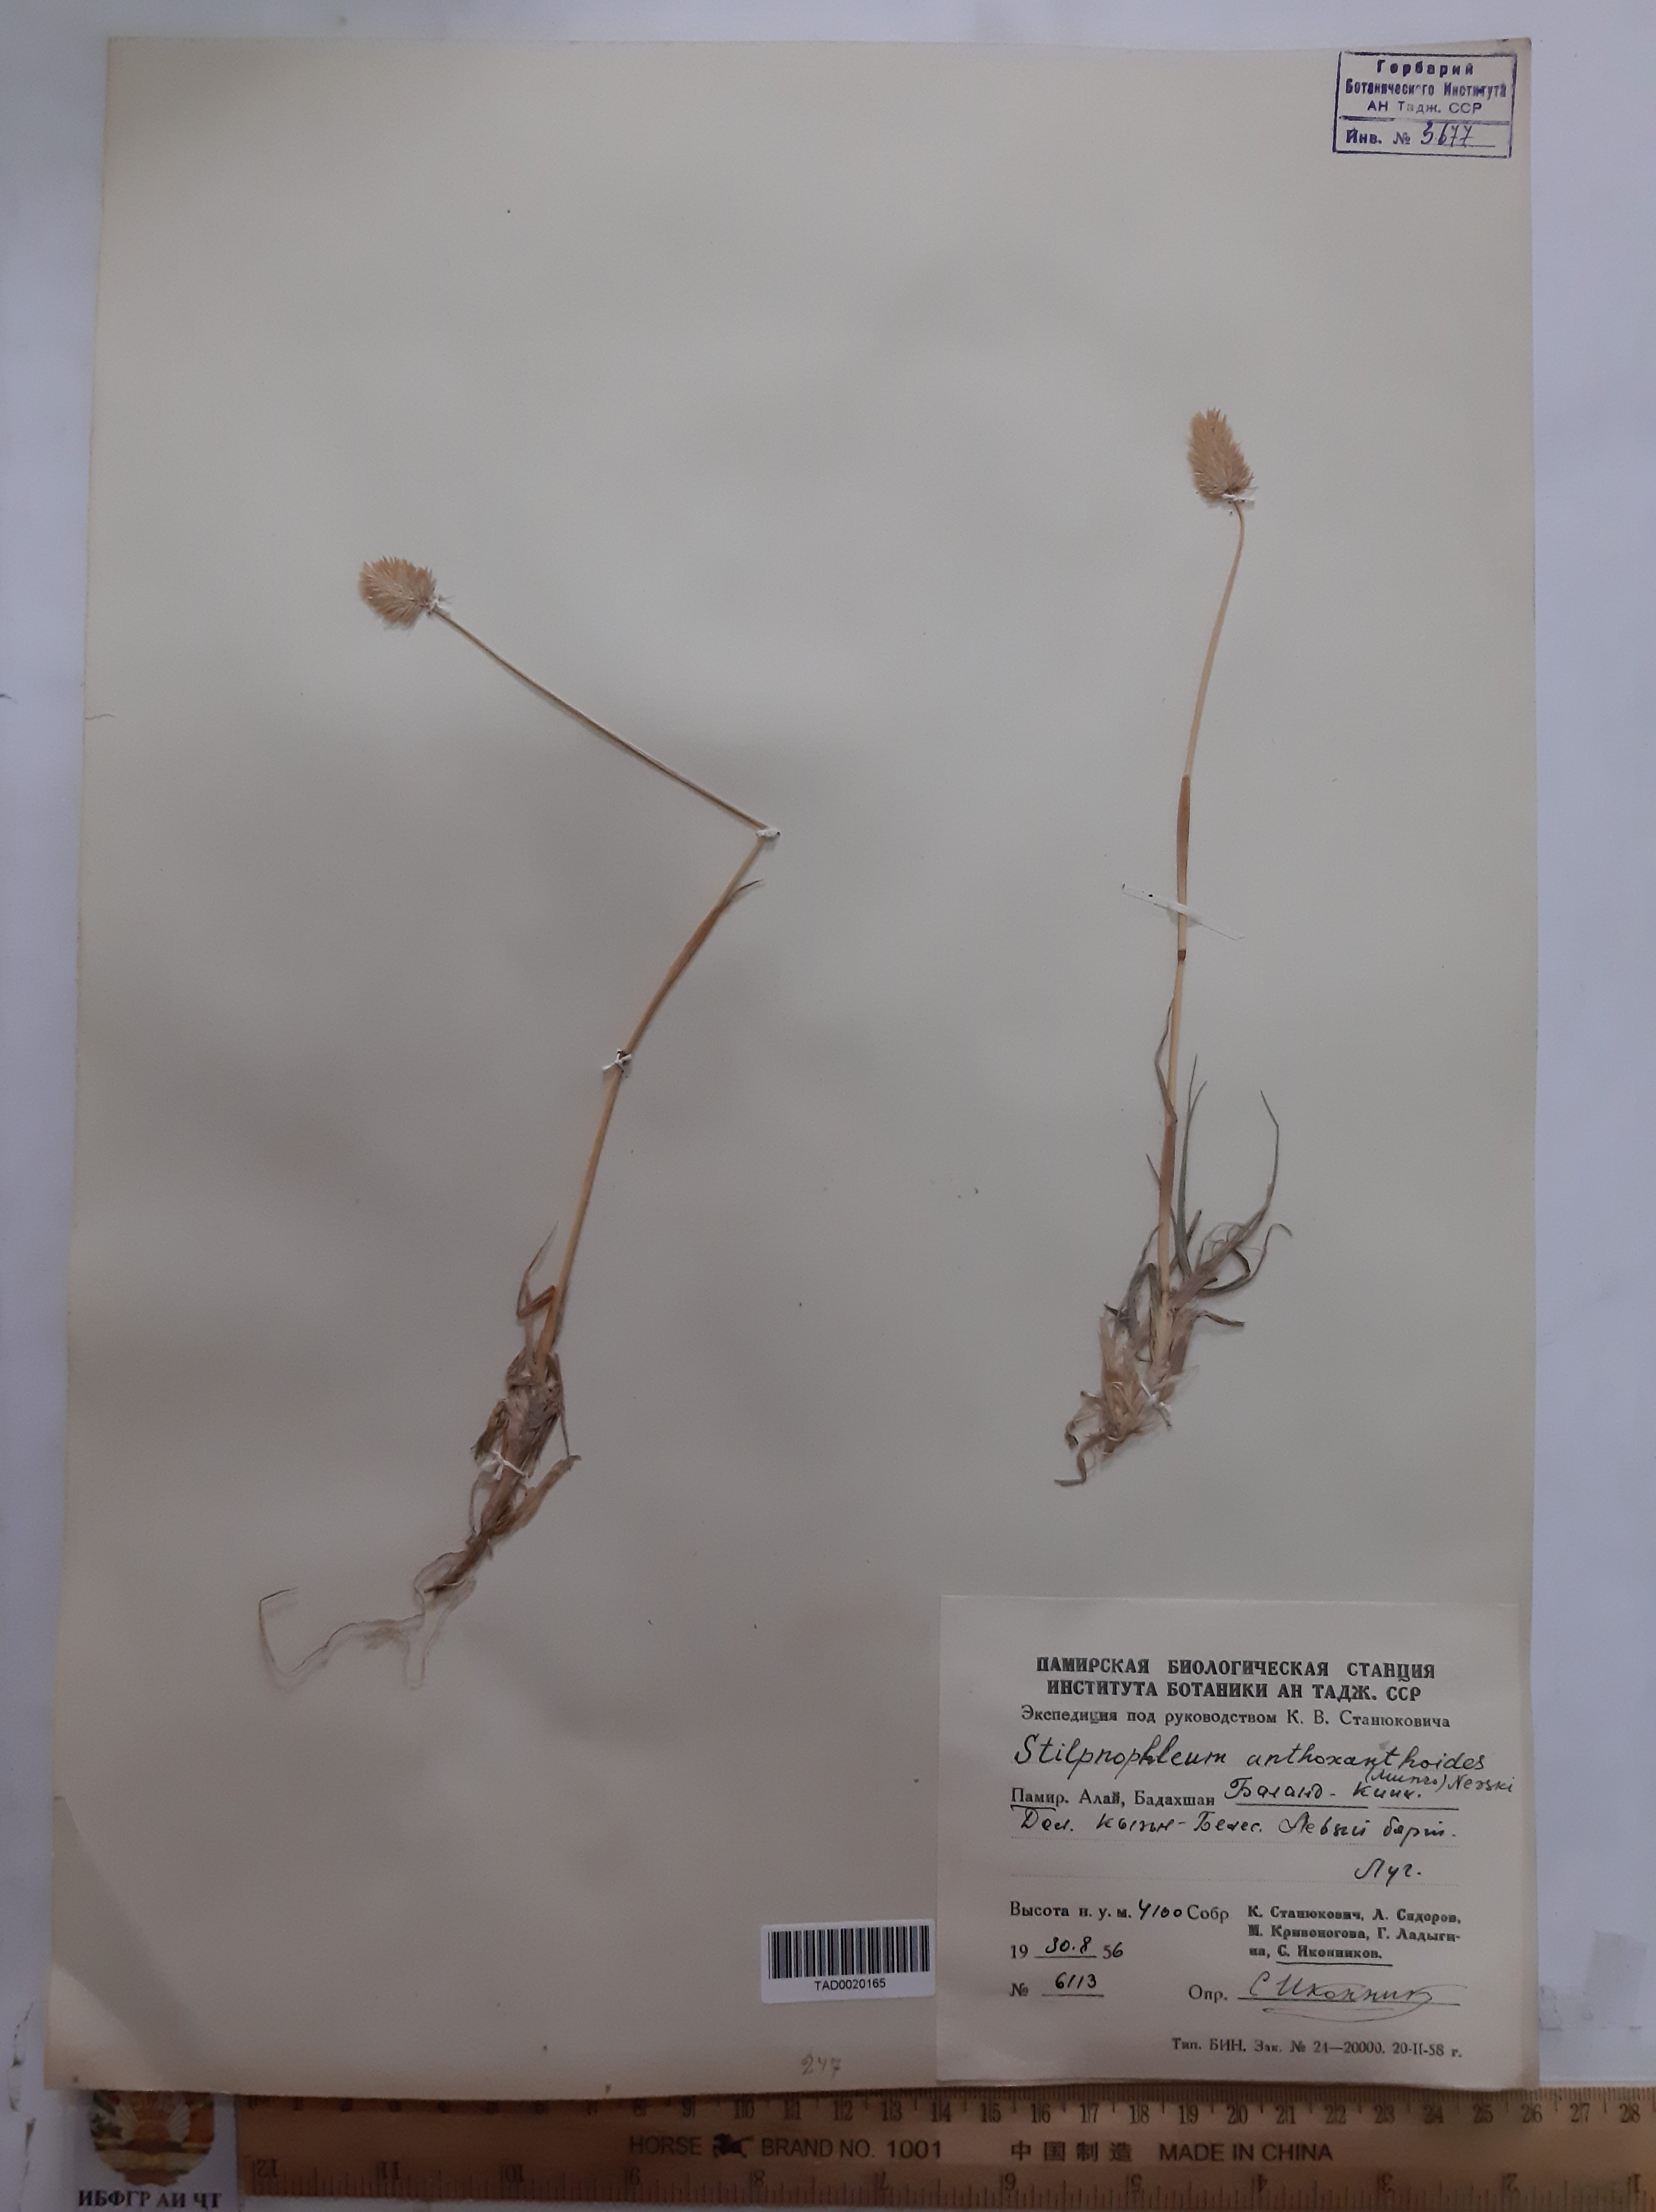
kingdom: Plantae
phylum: Tracheophyta
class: Liliopsida
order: Poales
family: Poaceae
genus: Calamagrostis
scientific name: Calamagrostis anthoxanthoides
